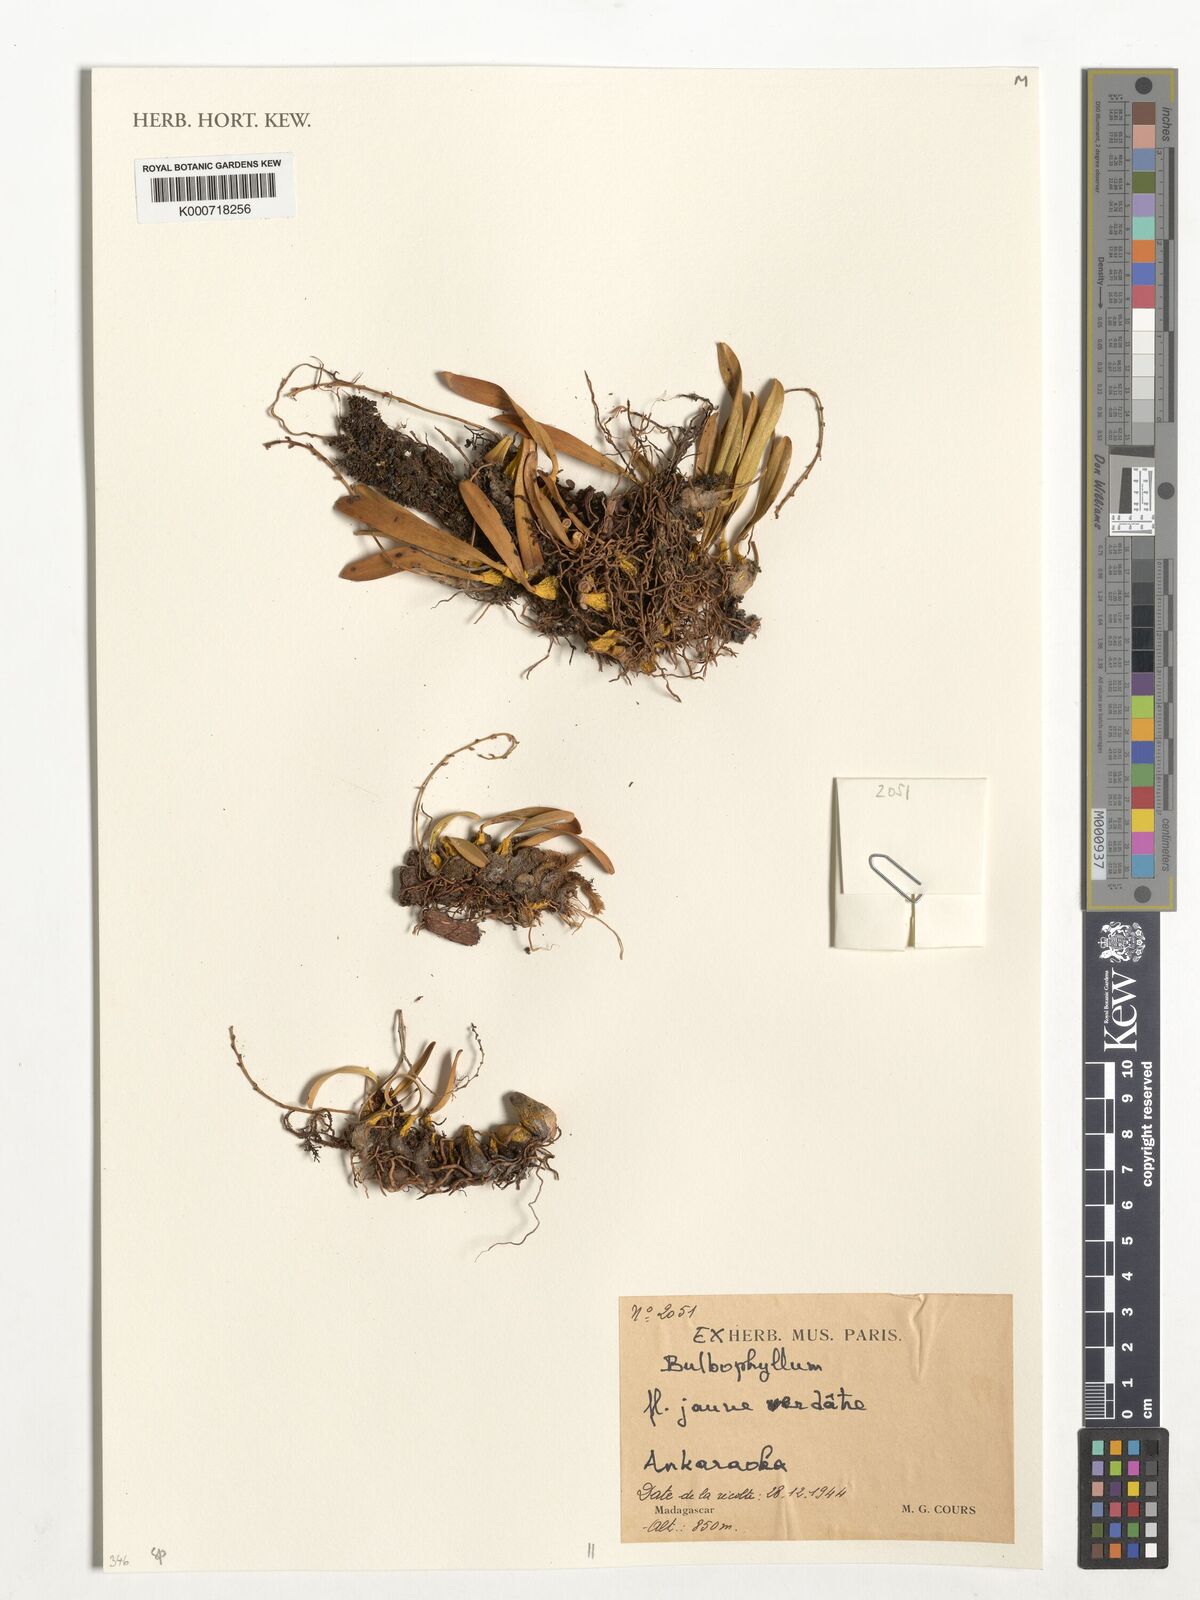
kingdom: Plantae
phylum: Tracheophyta
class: Liliopsida
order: Asparagales
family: Orchidaceae
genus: Bulbophyllum
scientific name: Bulbophyllum
